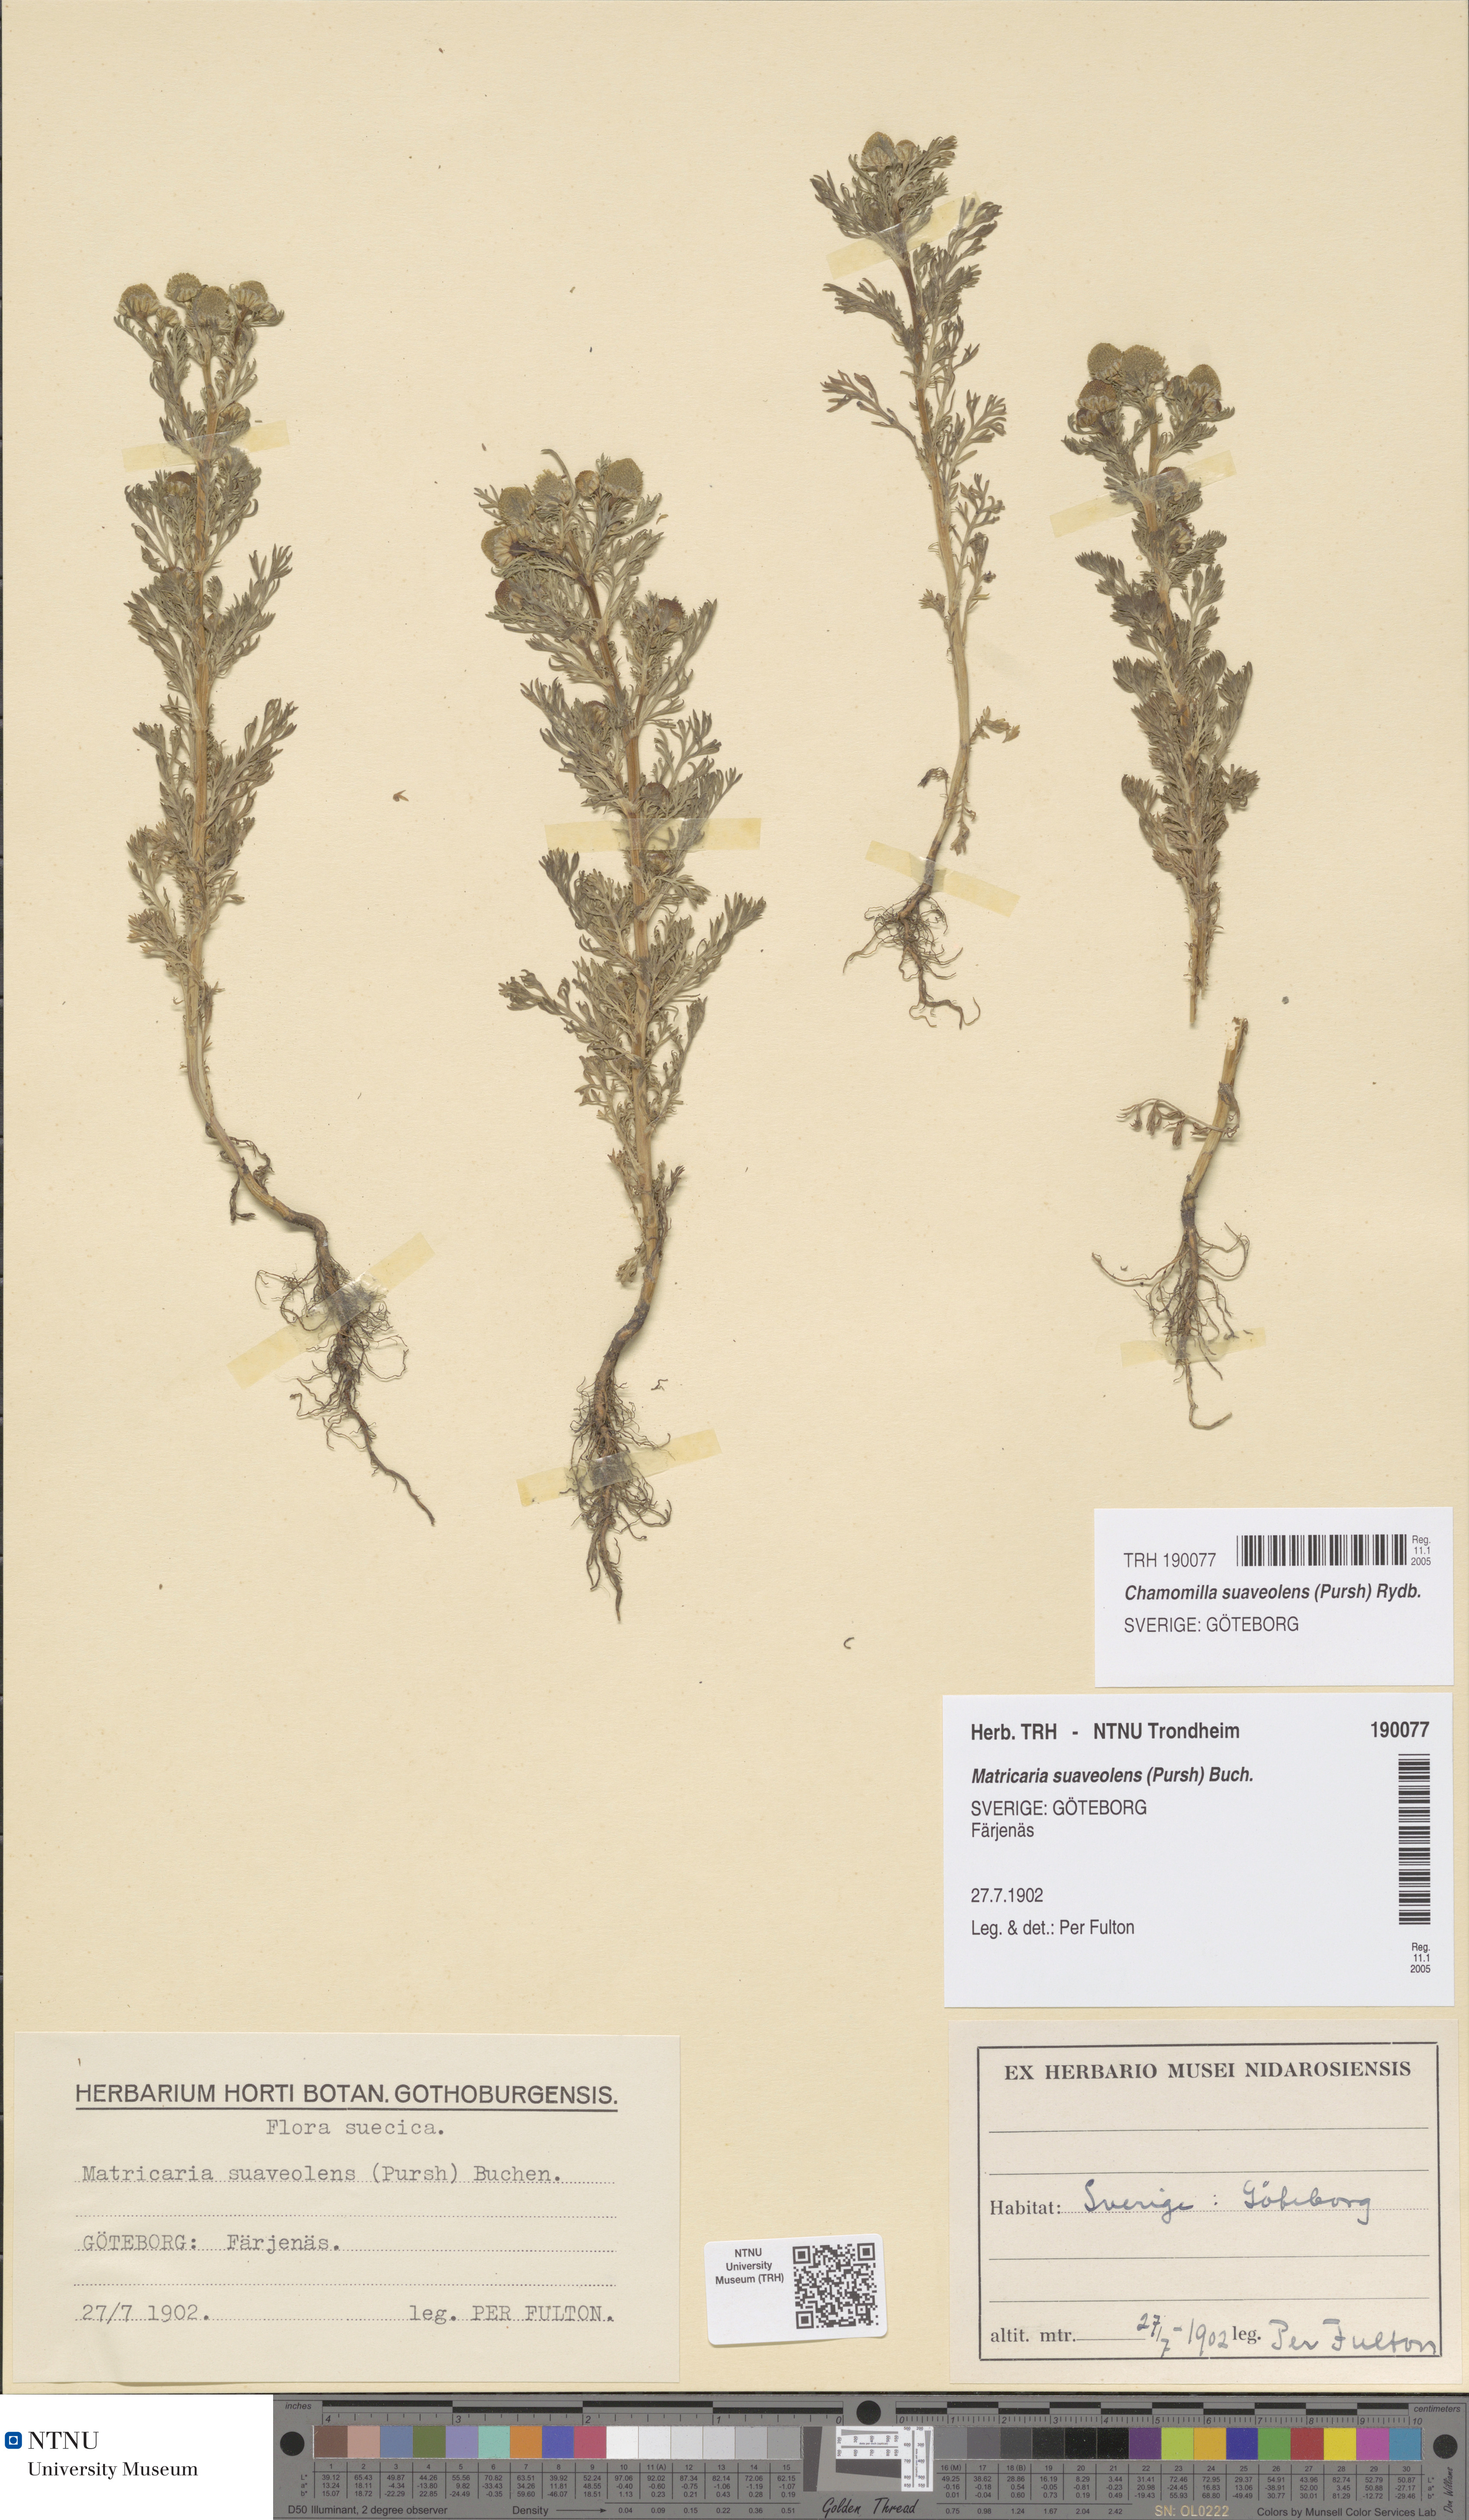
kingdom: Plantae
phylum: Tracheophyta
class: Magnoliopsida
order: Asterales
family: Asteraceae
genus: Matricaria
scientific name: Matricaria discoidea
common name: Disc mayweed
